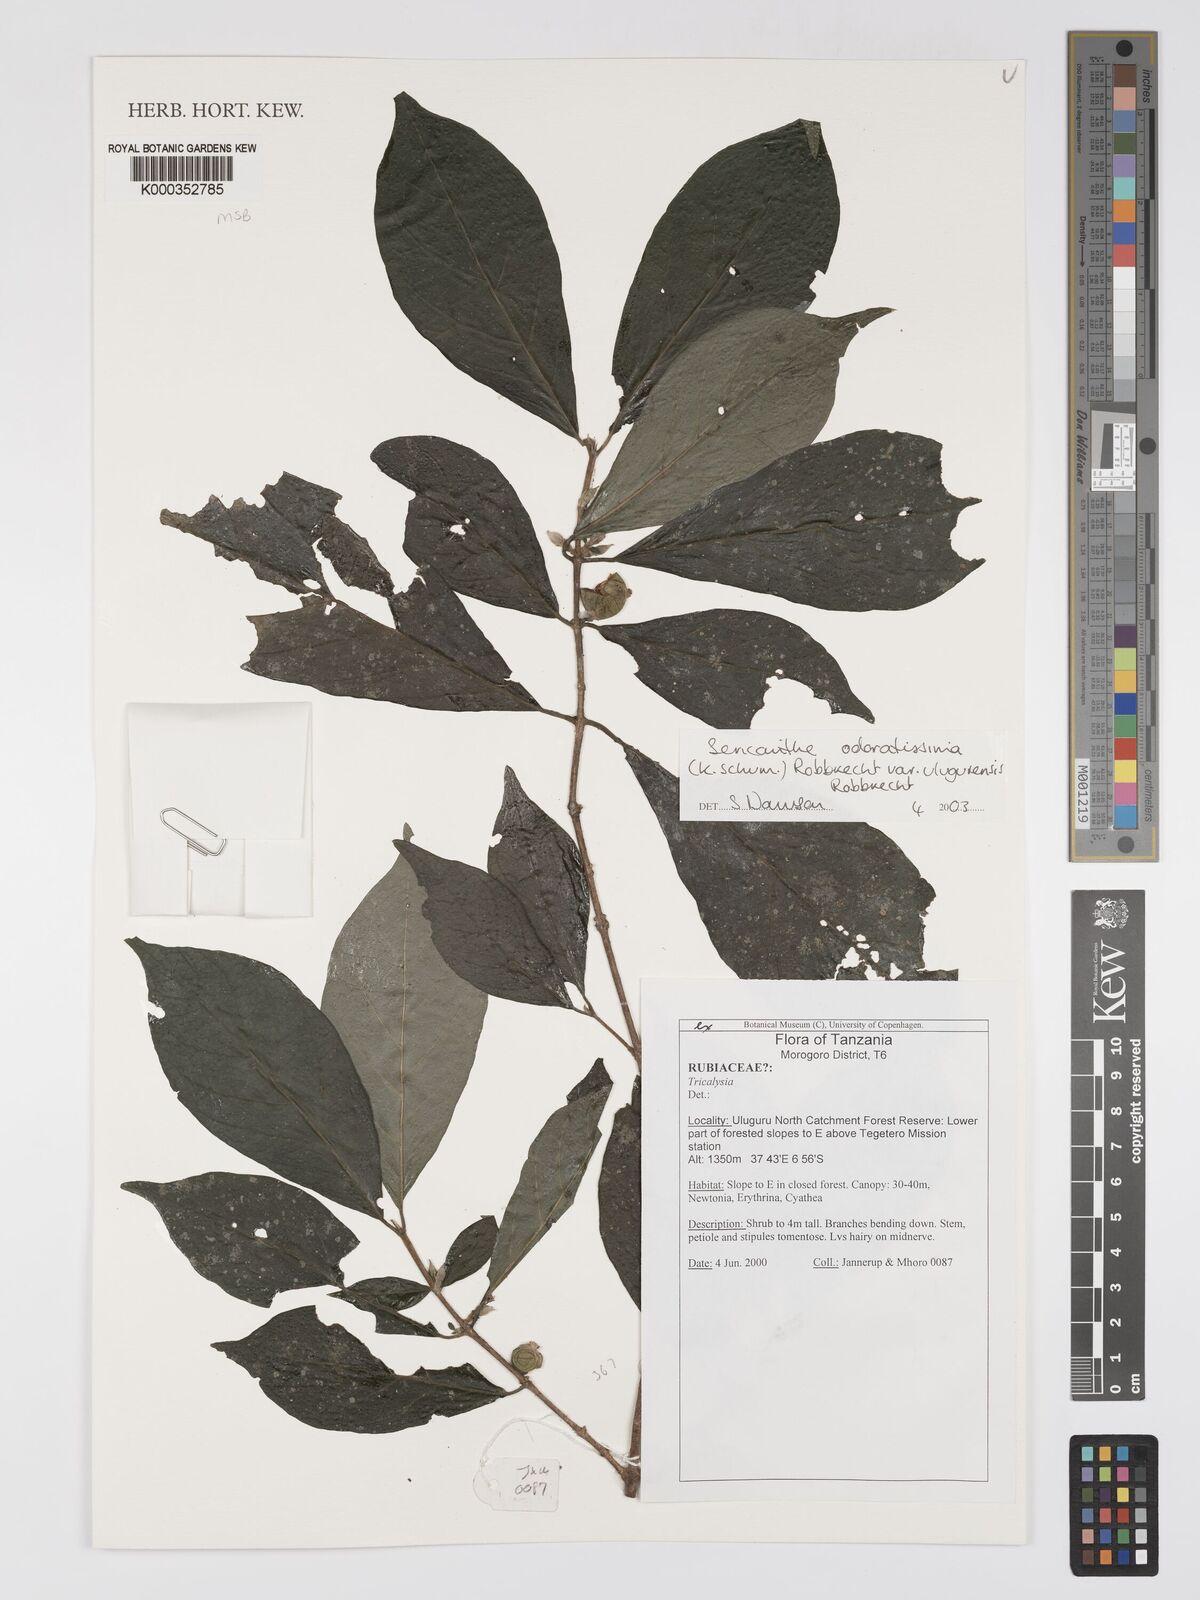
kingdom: Plantae
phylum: Tracheophyta
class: Magnoliopsida
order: Gentianales
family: Rubiaceae
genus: Sericanthe
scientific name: Sericanthe odoratissima
